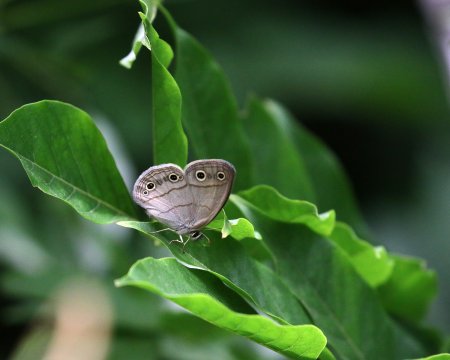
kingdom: Animalia
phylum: Arthropoda
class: Insecta
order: Lepidoptera
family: Nymphalidae
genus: Euptychia
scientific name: Euptychia cymela
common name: Little Wood Satyr
